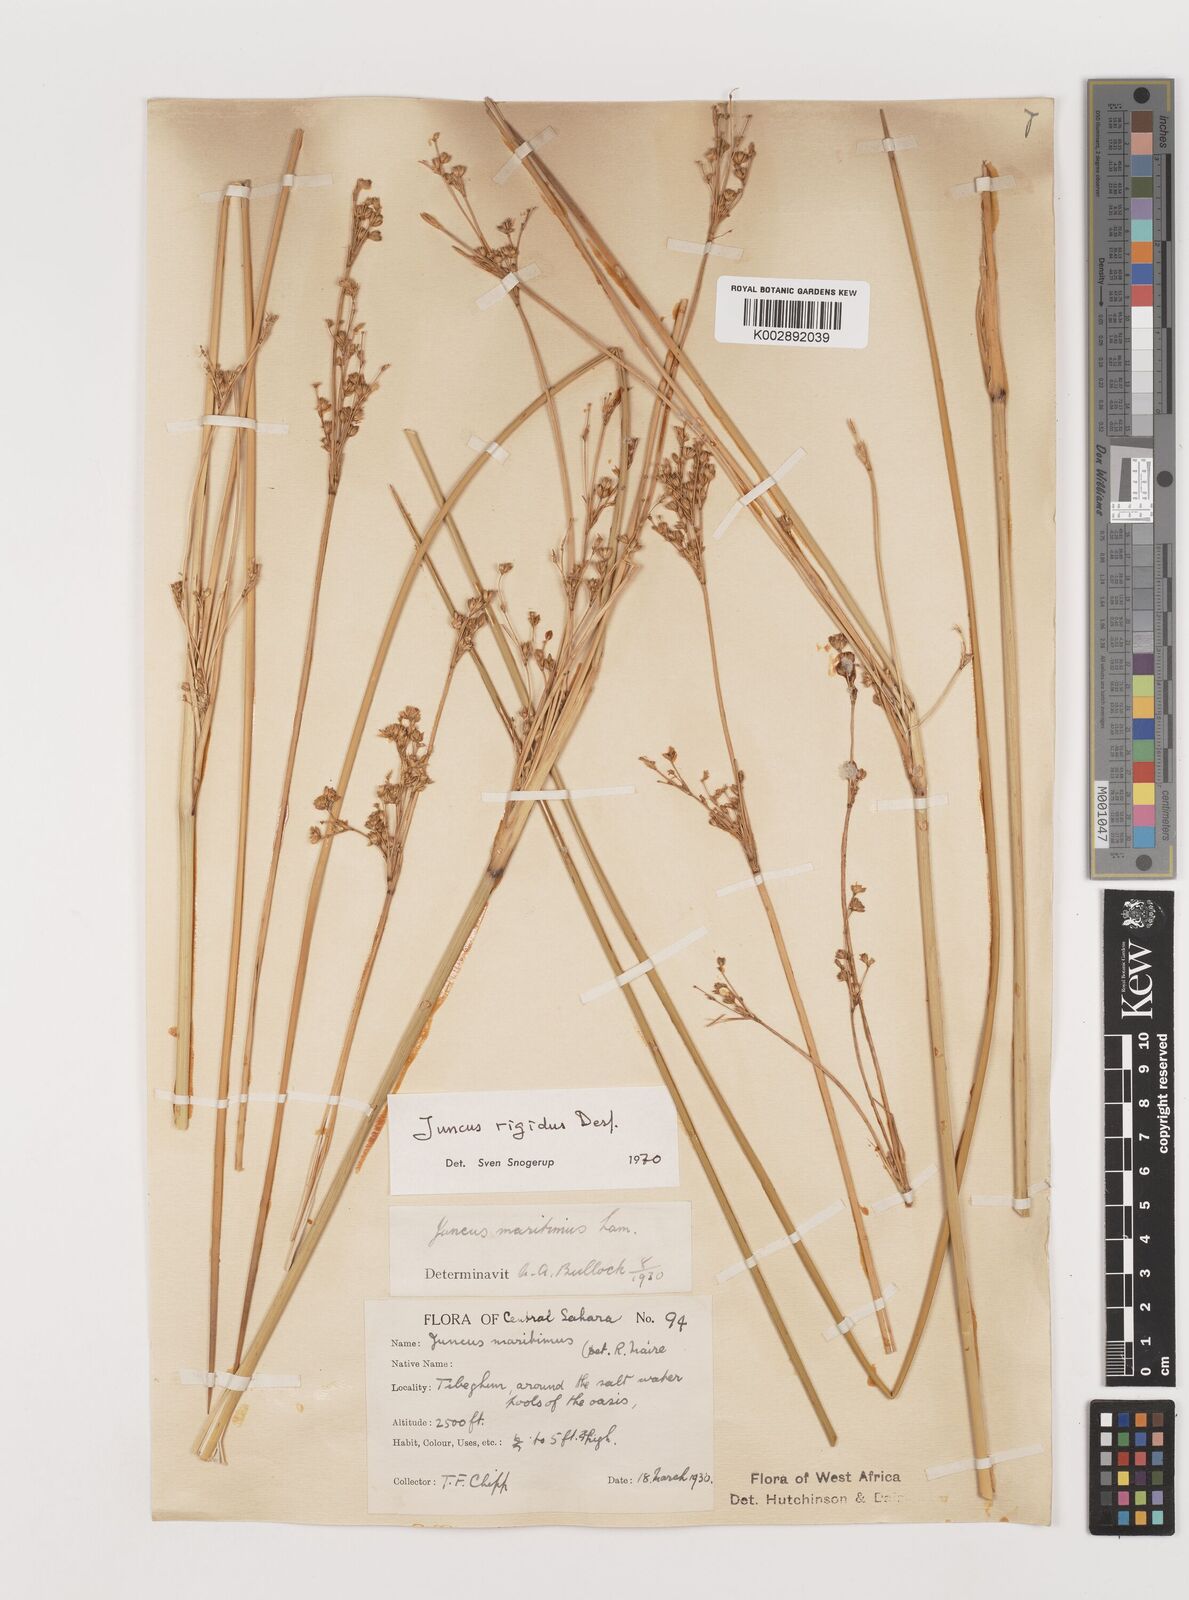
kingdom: Plantae
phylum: Tracheophyta
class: Liliopsida
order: Poales
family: Juncaceae
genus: Juncus
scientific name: Juncus rigidus
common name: Hard sea rush
